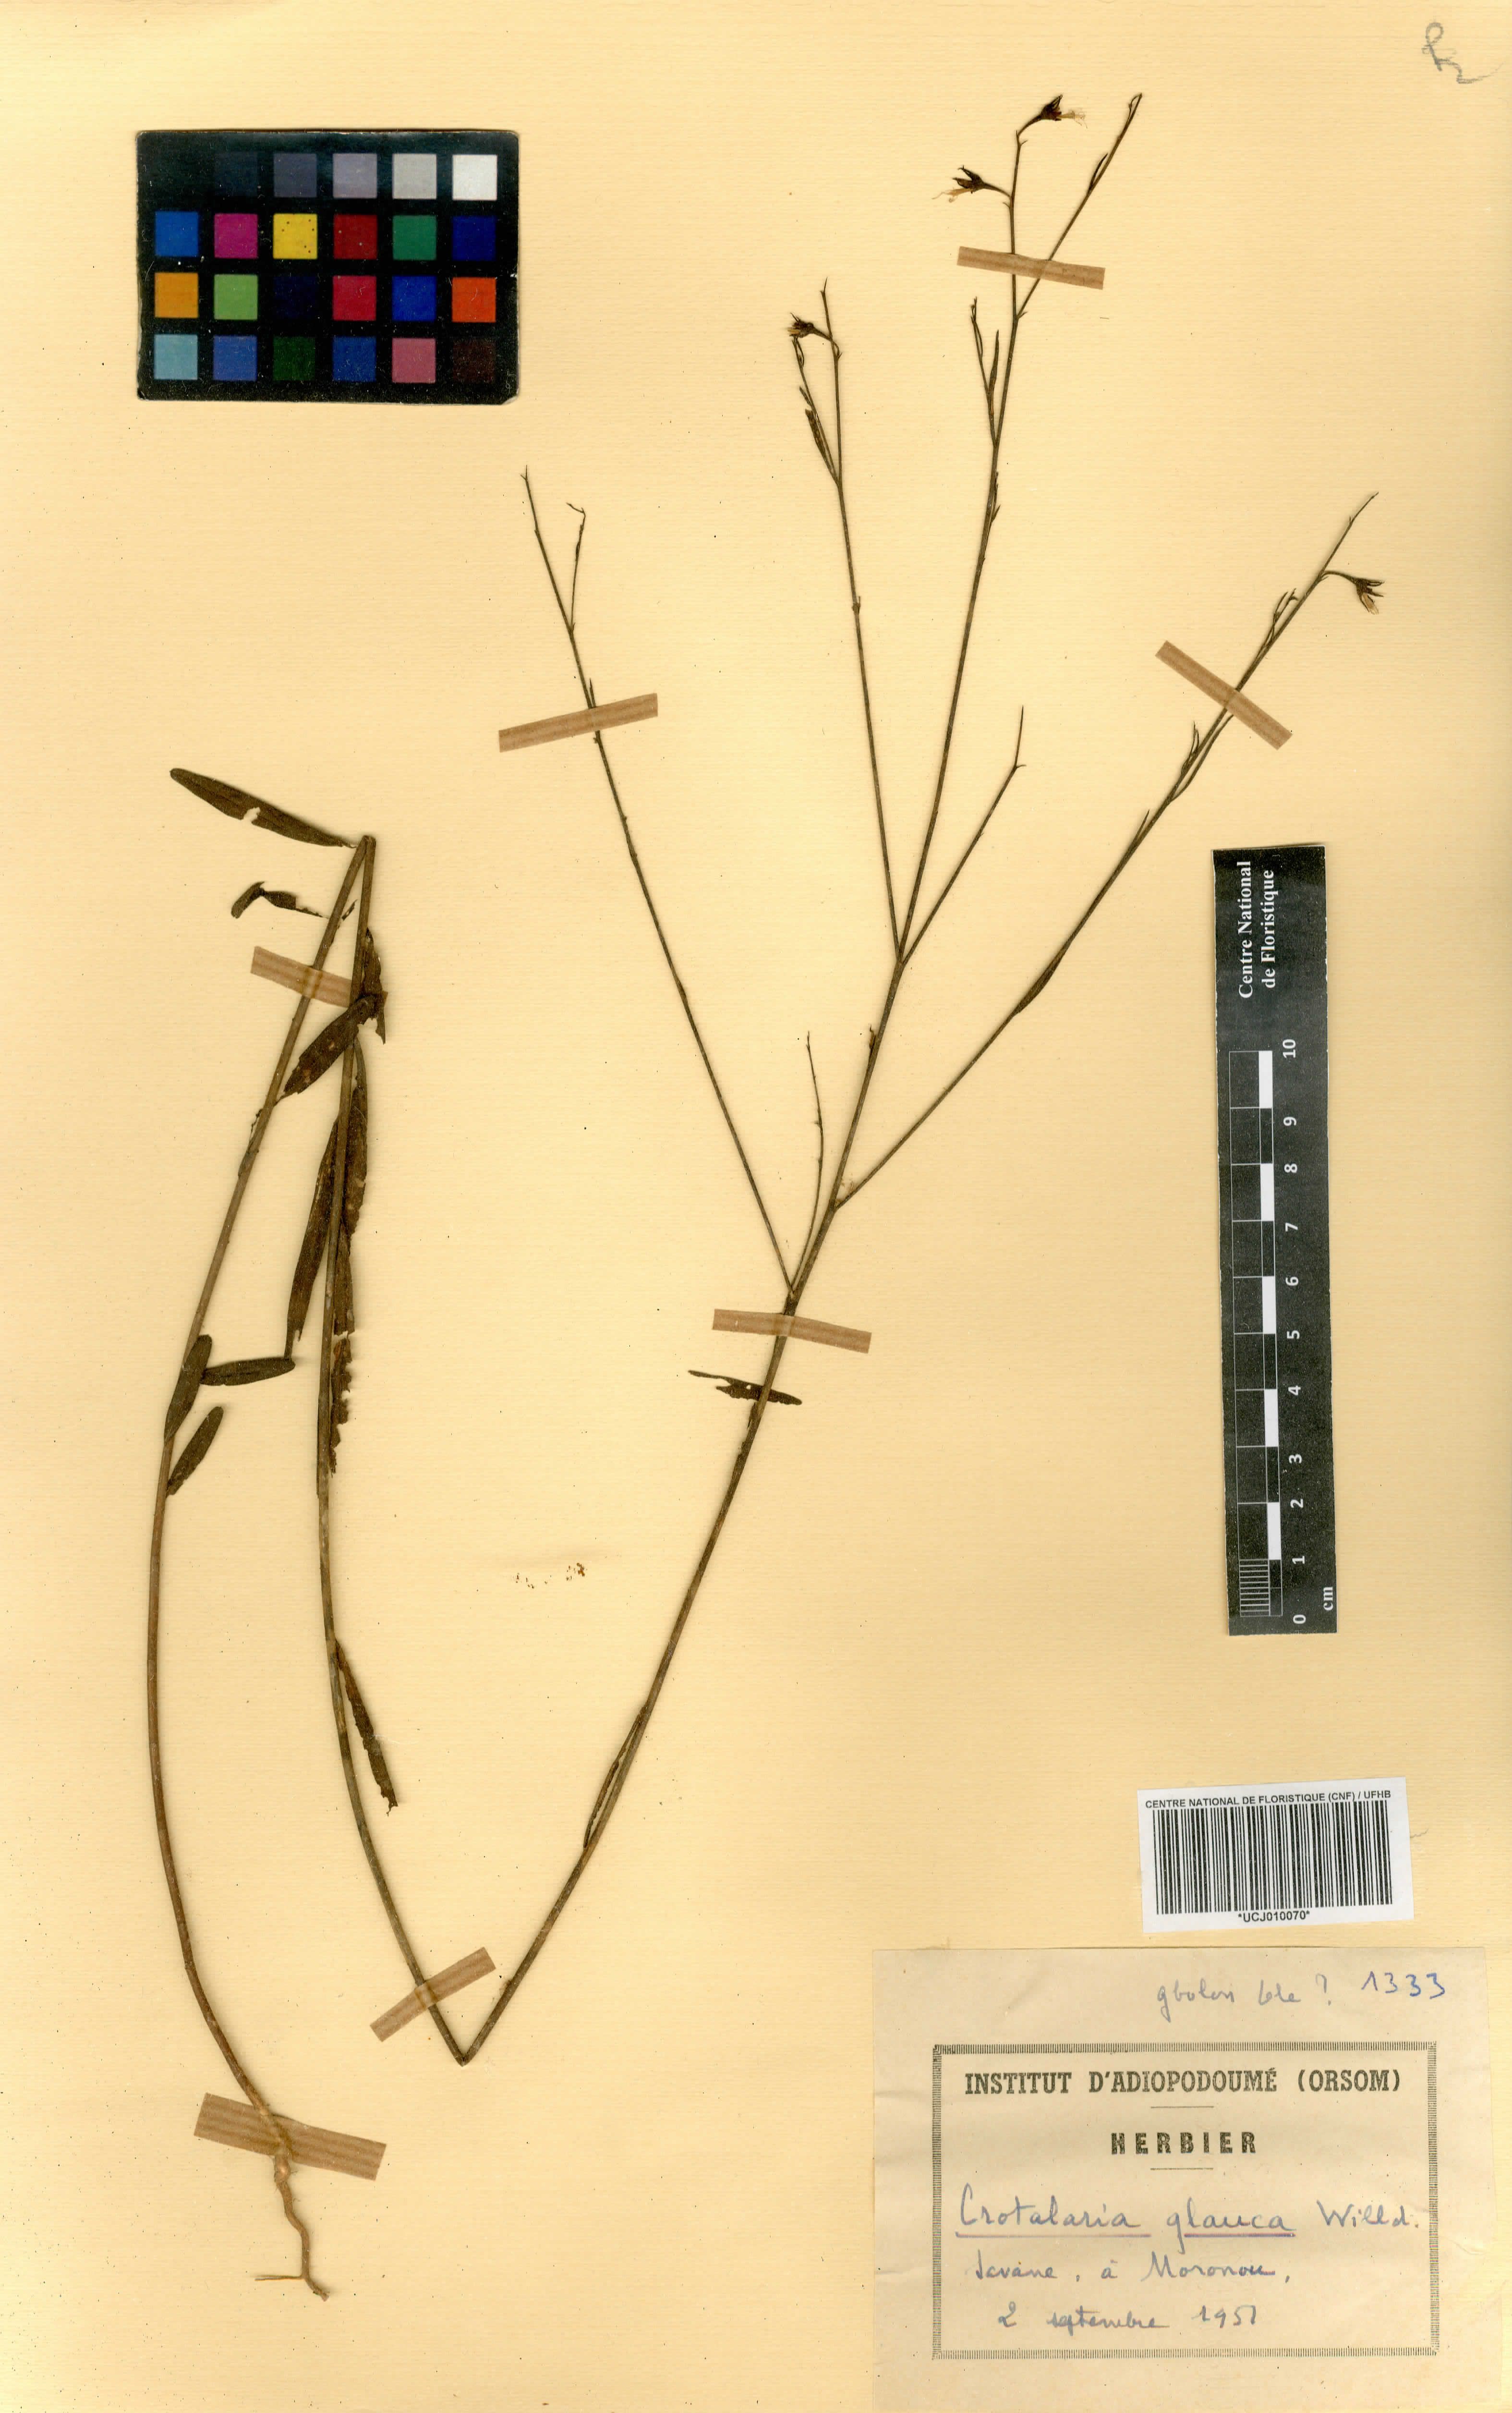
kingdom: Plantae
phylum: Tracheophyta
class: Magnoliopsida
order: Fabales
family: Fabaceae
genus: Crotalaria
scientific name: Crotalaria glauca
